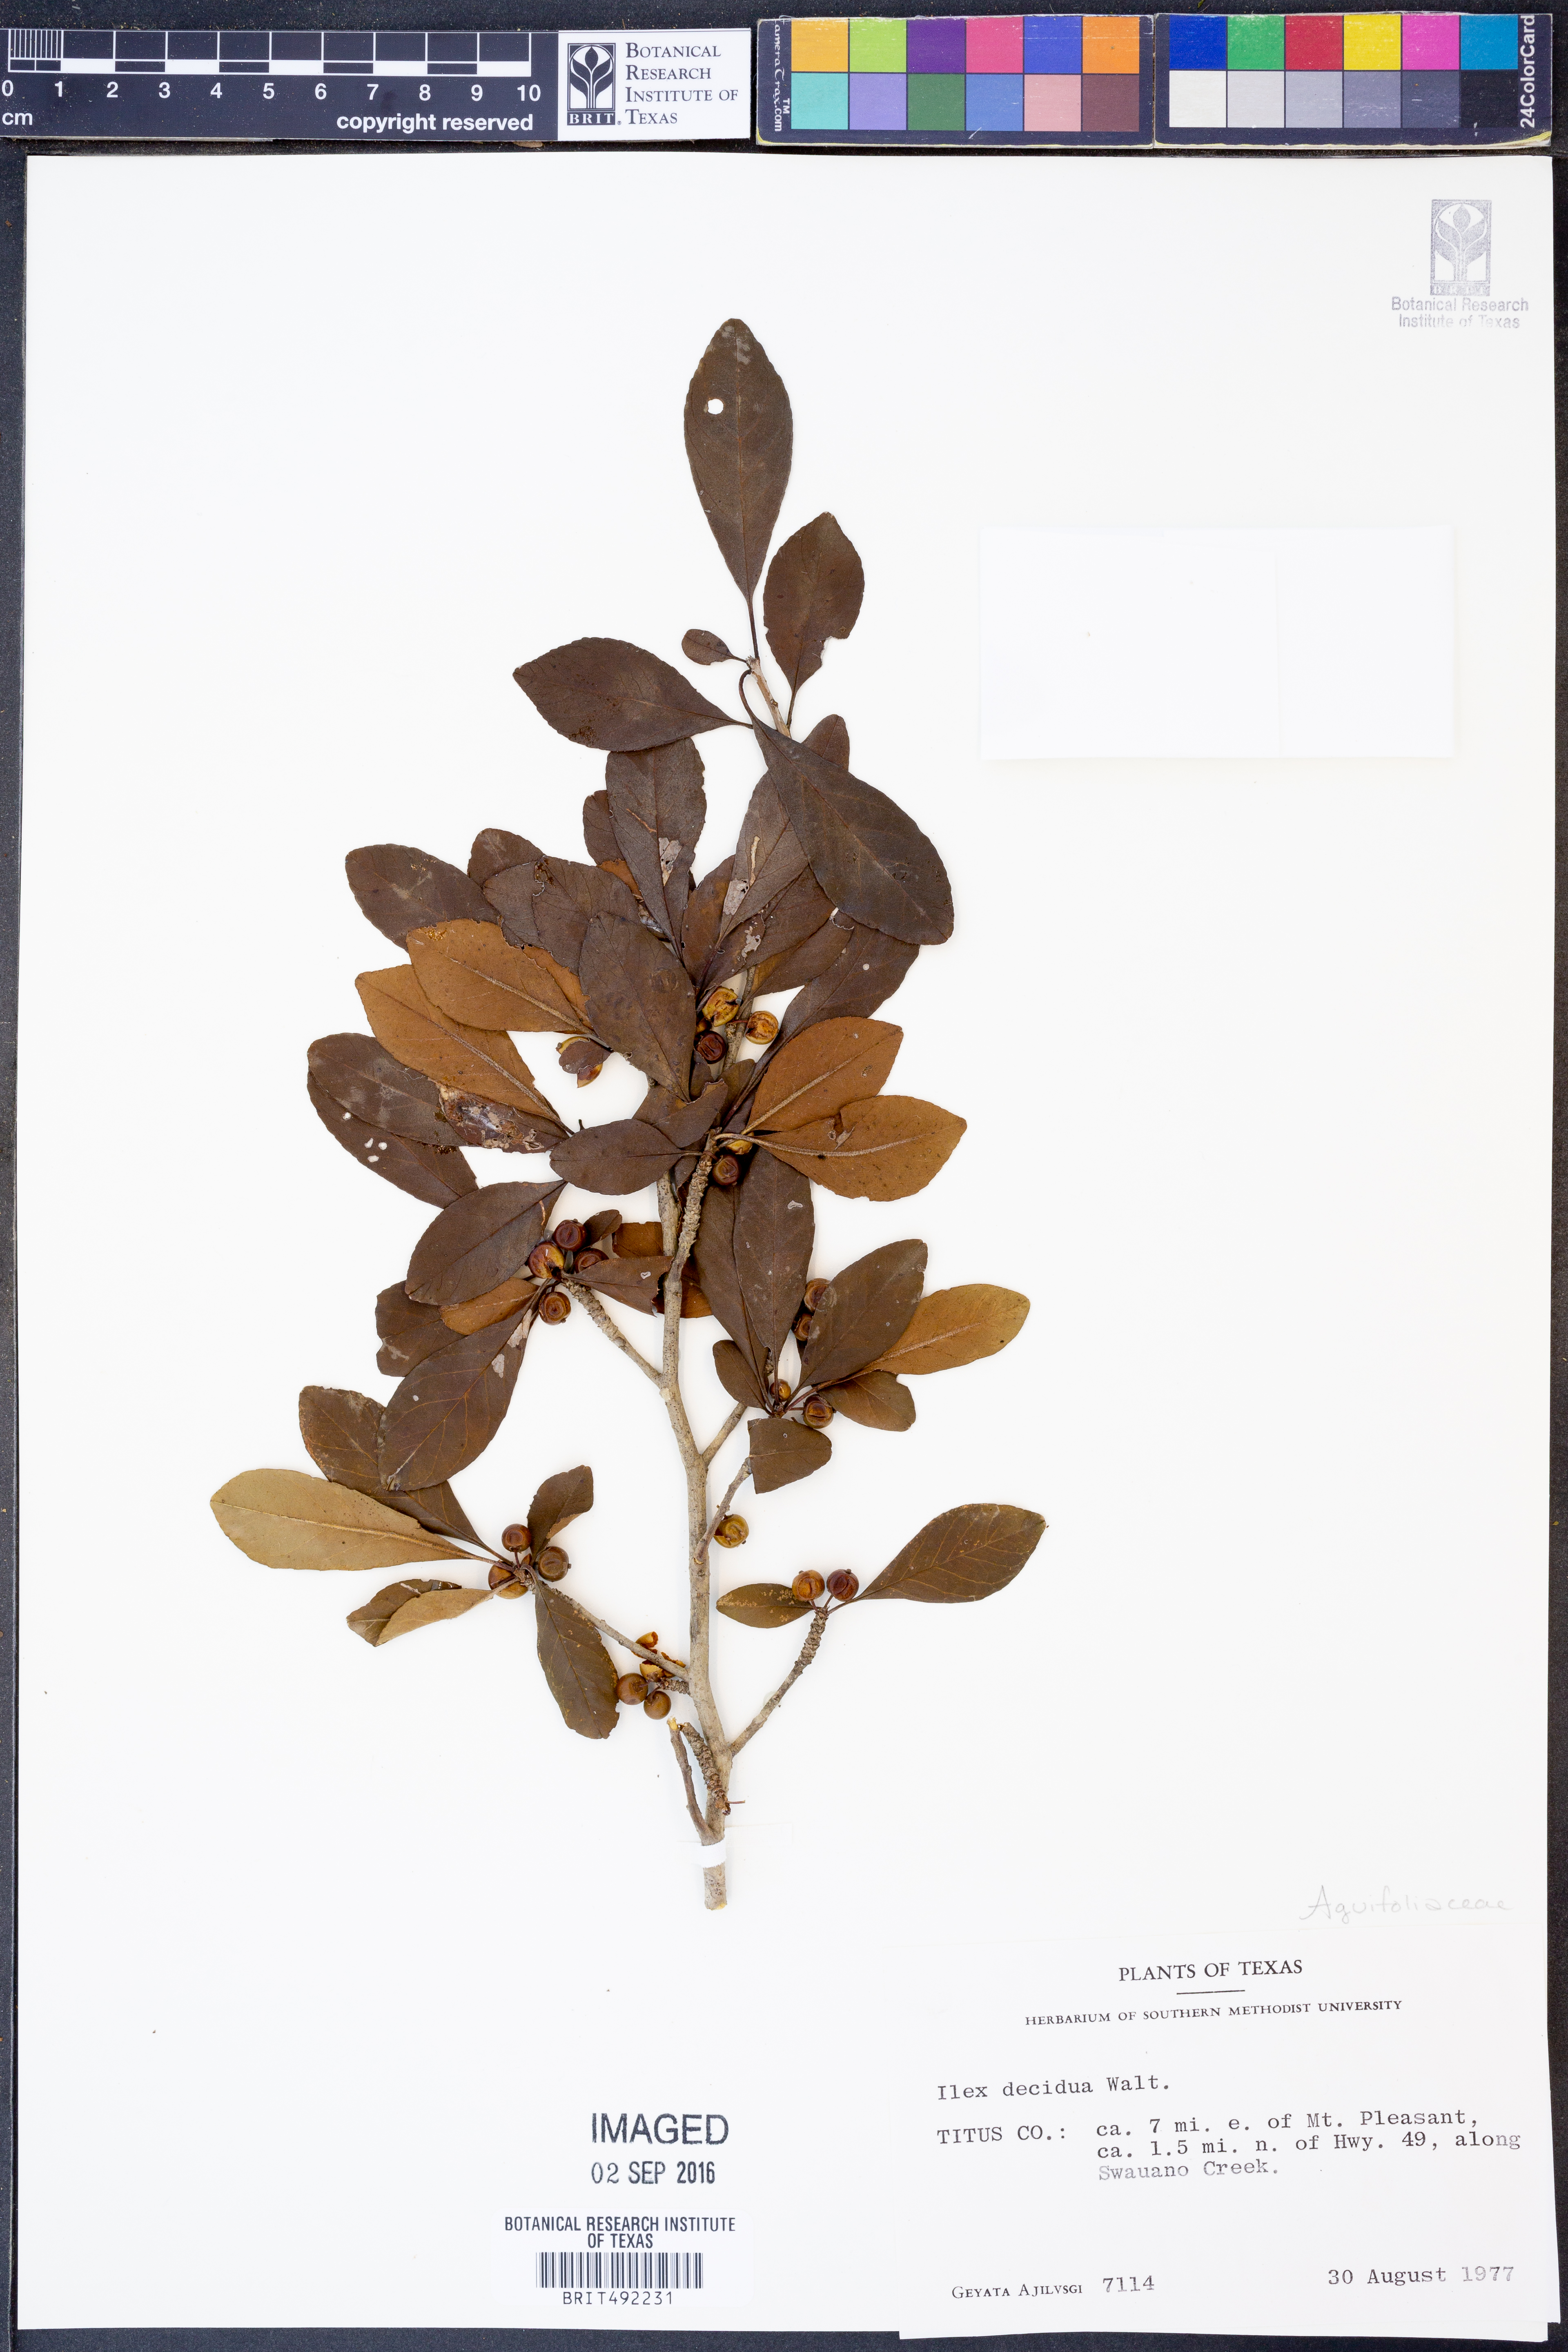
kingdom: Plantae
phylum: Tracheophyta
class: Magnoliopsida
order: Aquifoliales
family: Aquifoliaceae
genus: Ilex
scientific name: Ilex decidua
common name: Possum-haw
